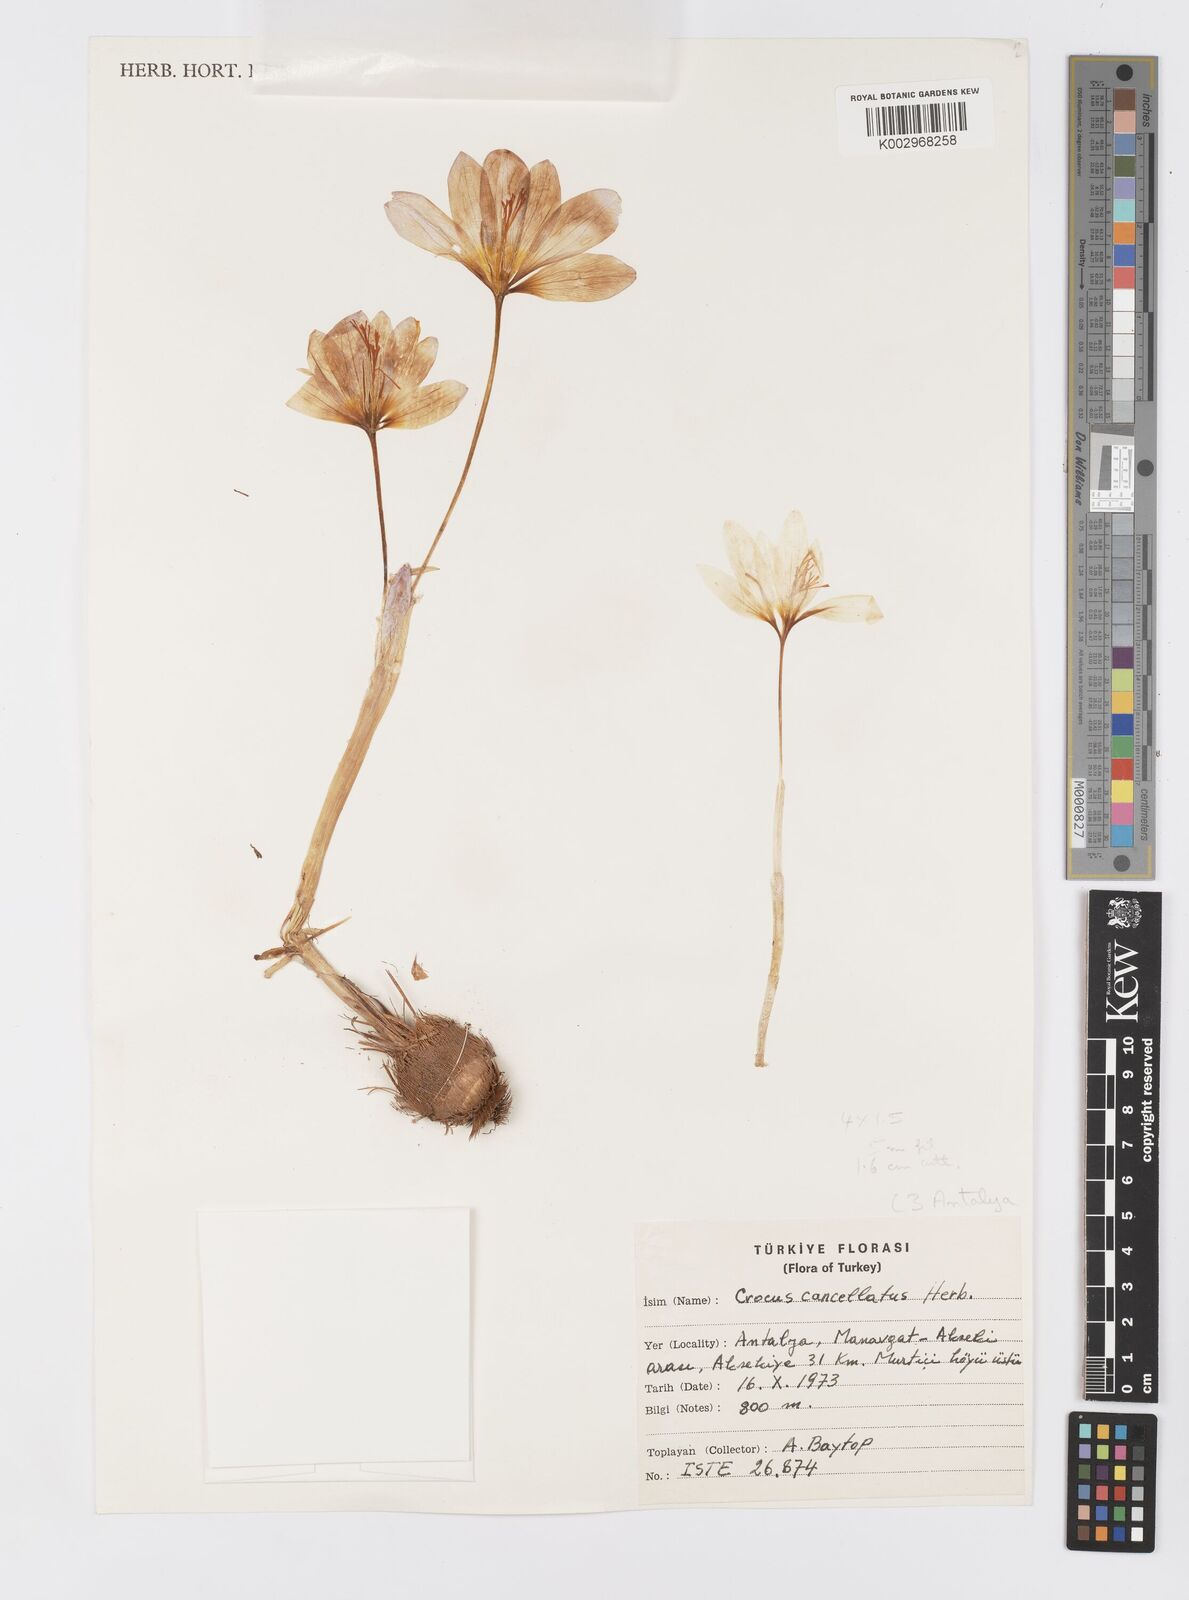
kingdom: Plantae
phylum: Tracheophyta
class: Liliopsida
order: Asparagales
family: Iridaceae
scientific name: Iridaceae
